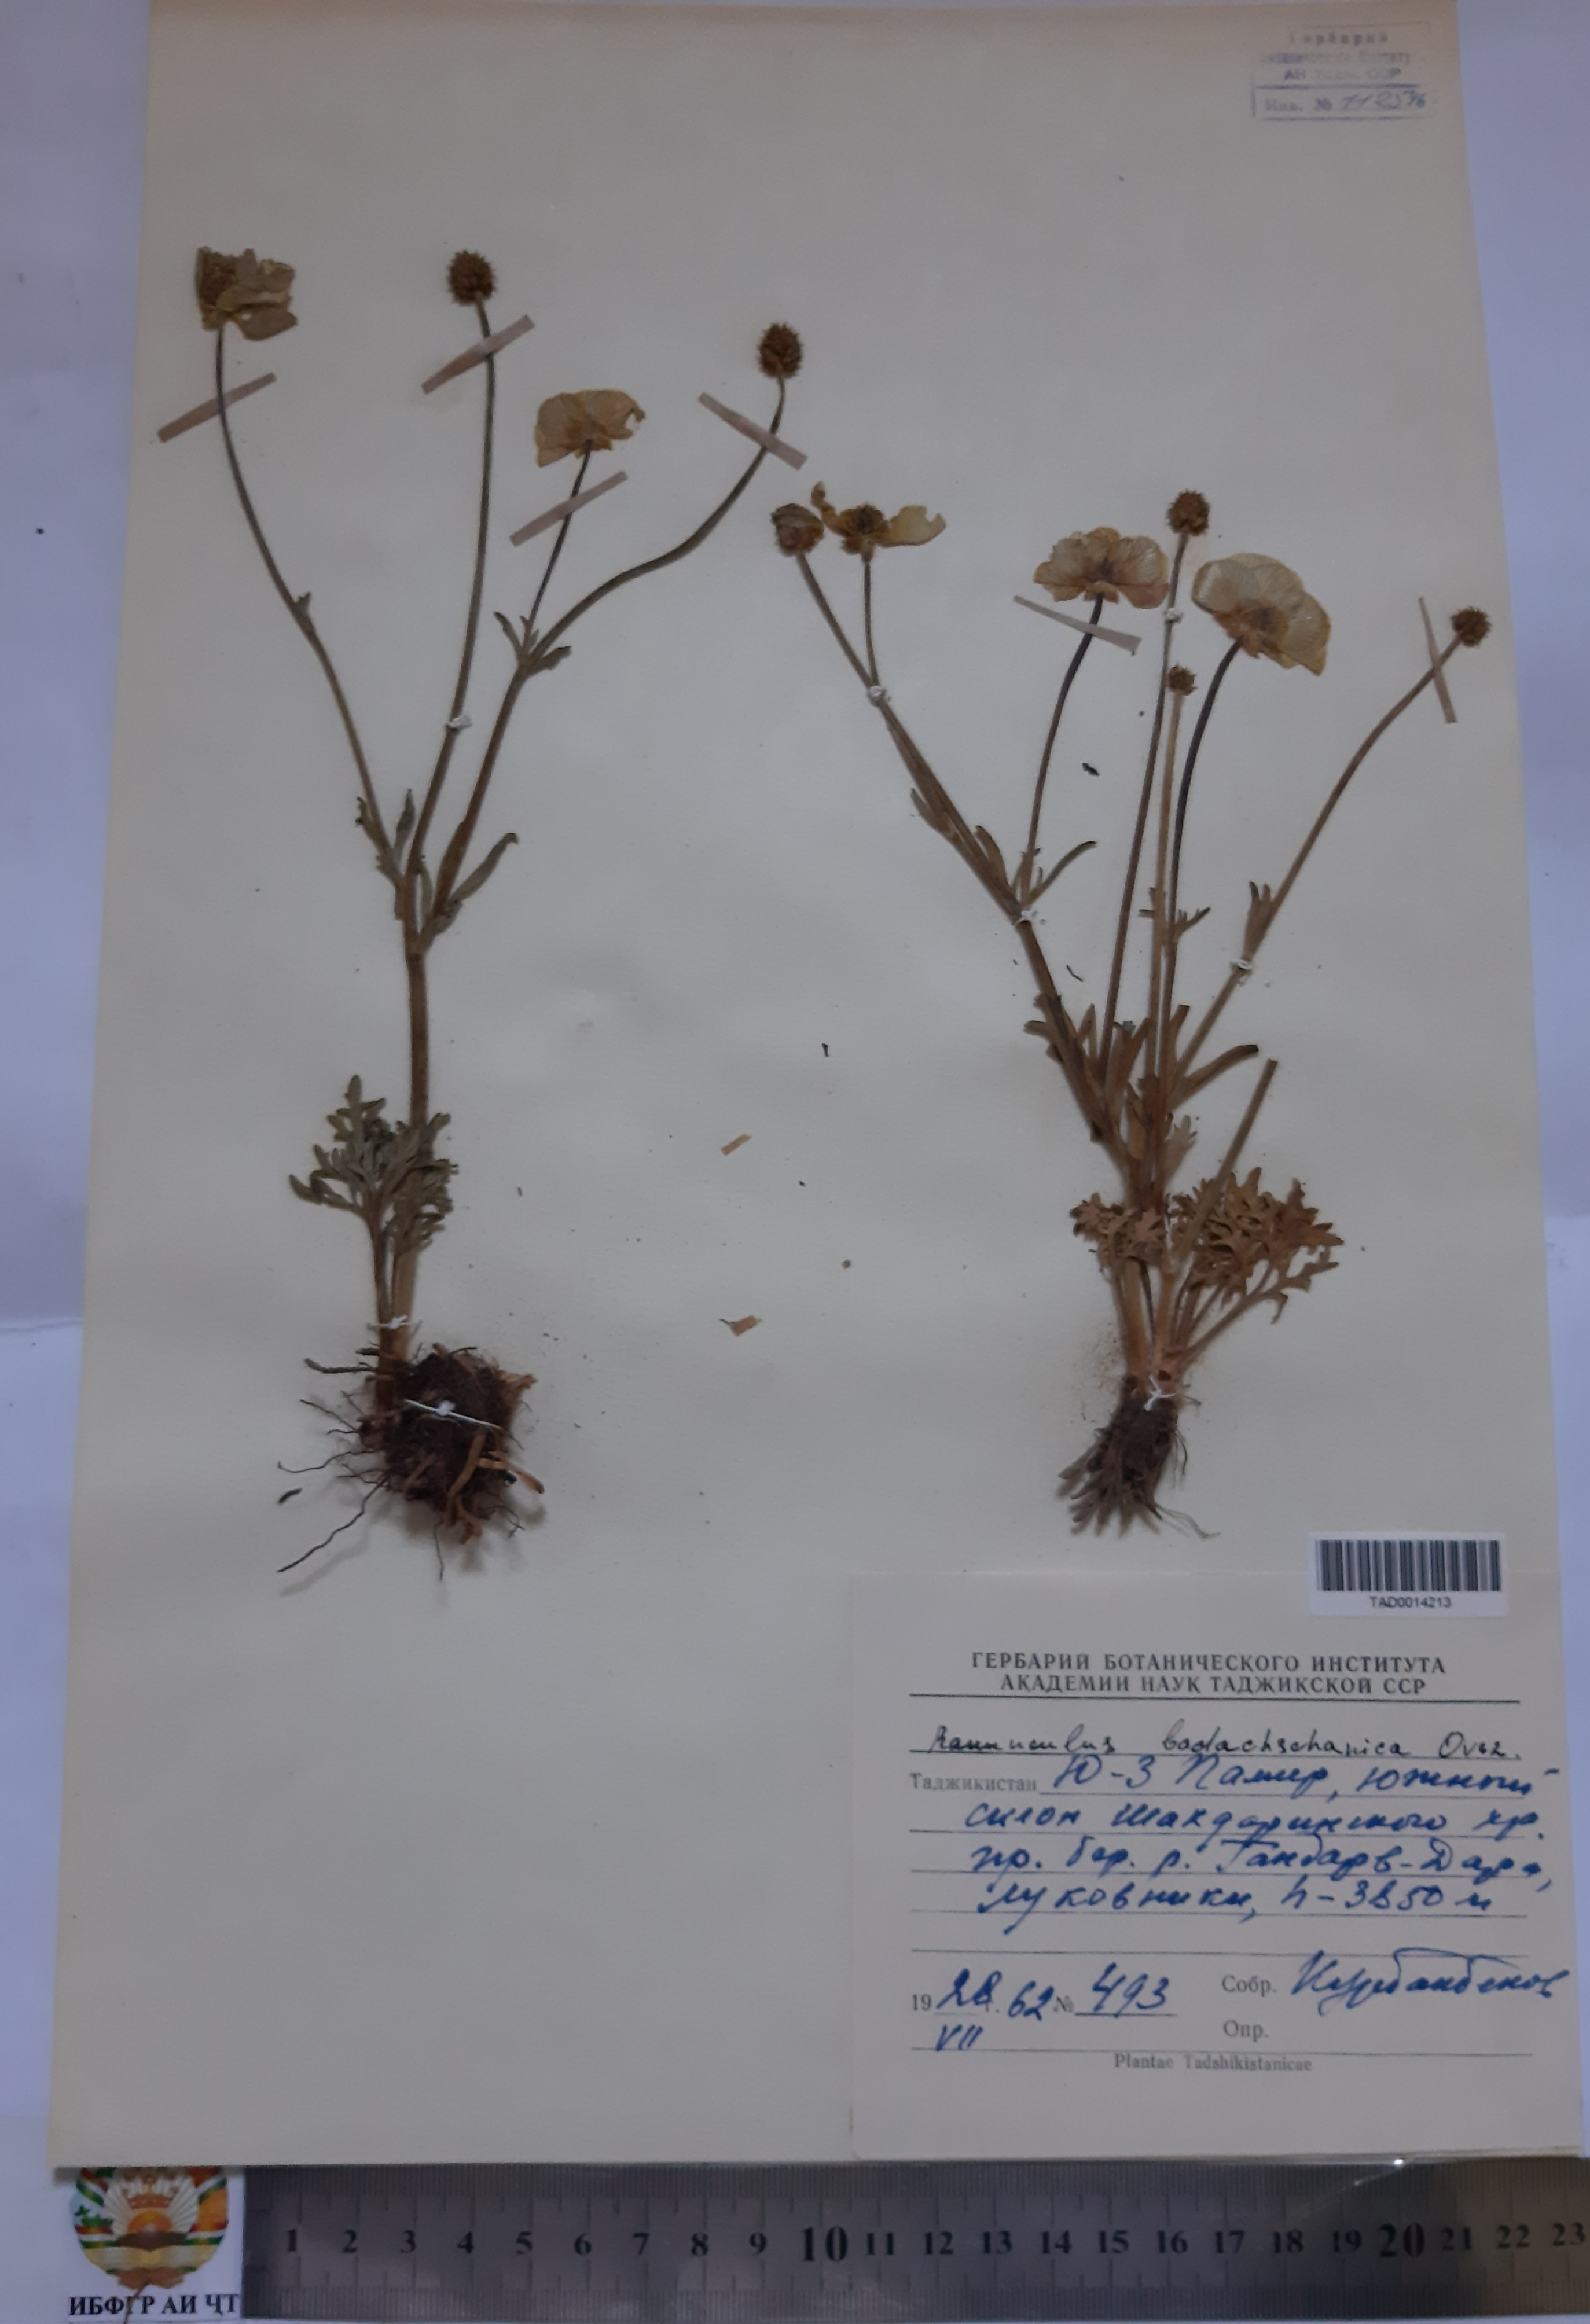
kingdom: Plantae
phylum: Tracheophyta
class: Magnoliopsida
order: Ranunculales
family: Ranunculaceae
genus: Ranunculus
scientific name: Ranunculus badachschanicus
